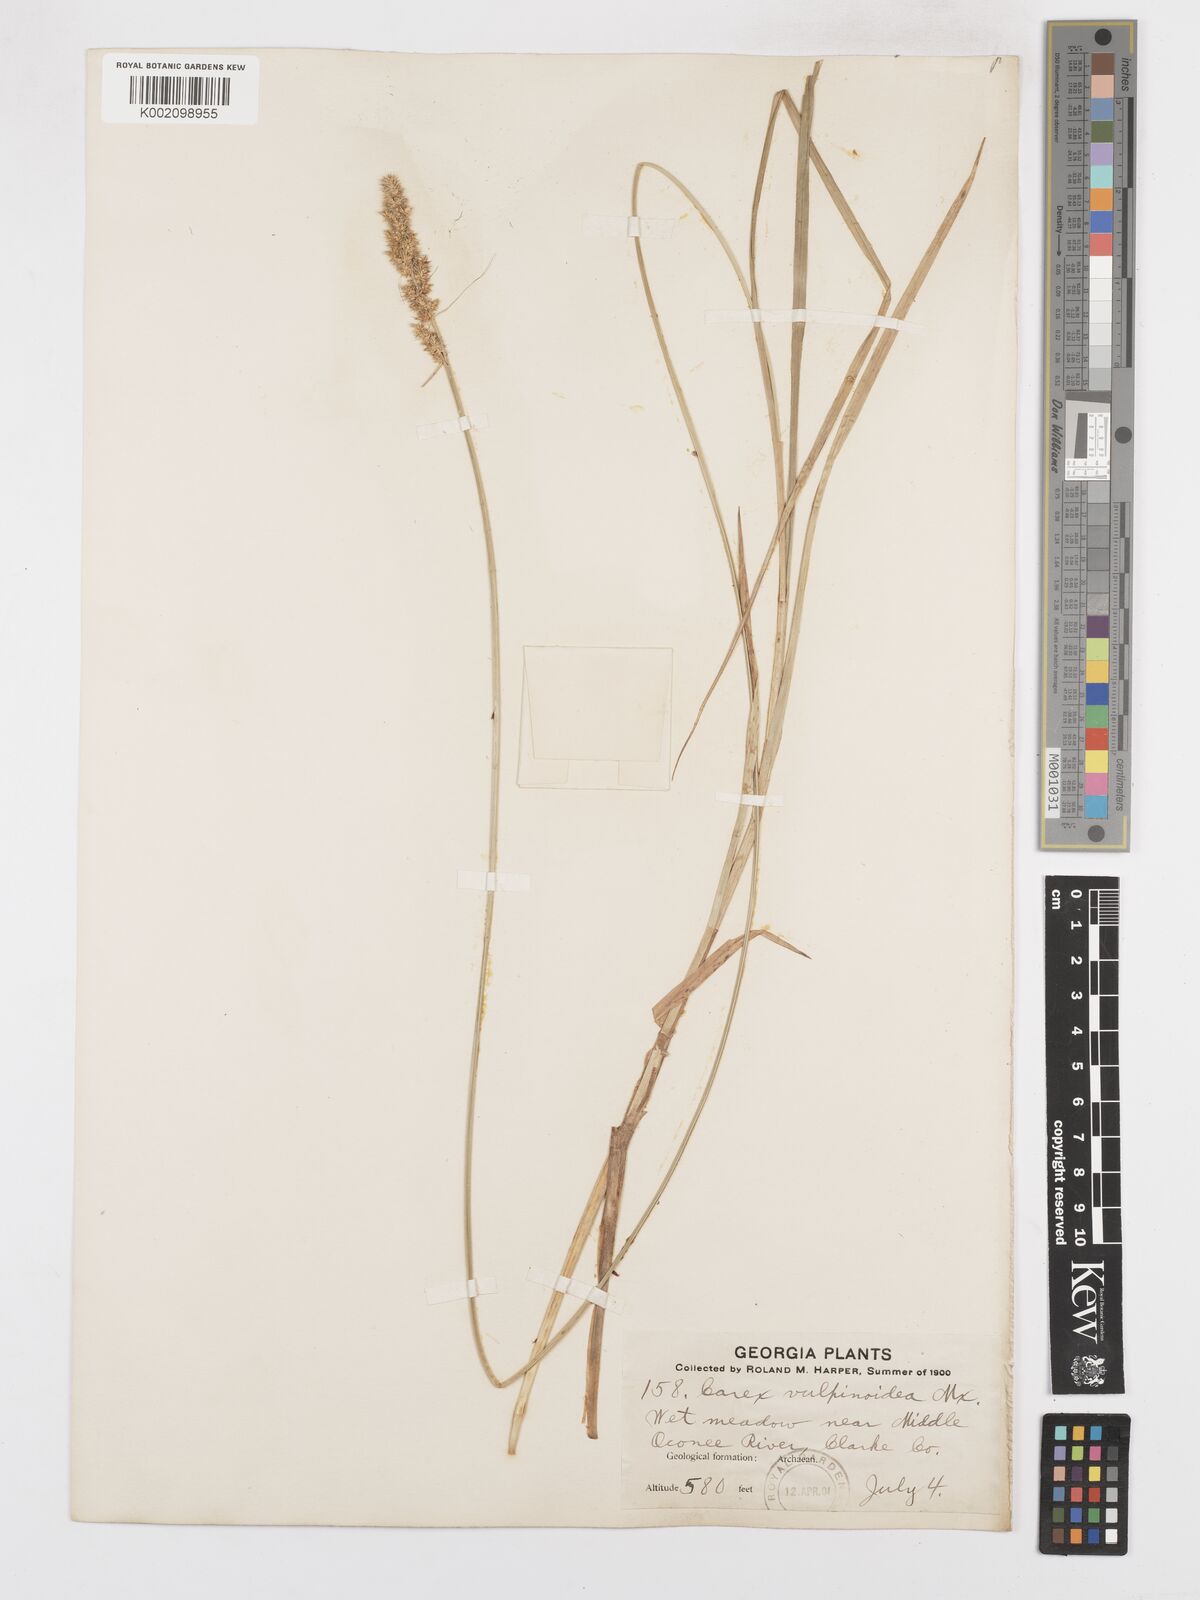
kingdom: Plantae
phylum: Tracheophyta
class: Liliopsida
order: Poales
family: Cyperaceae
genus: Carex
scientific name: Carex vulpinoidea
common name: American fox-sedge
